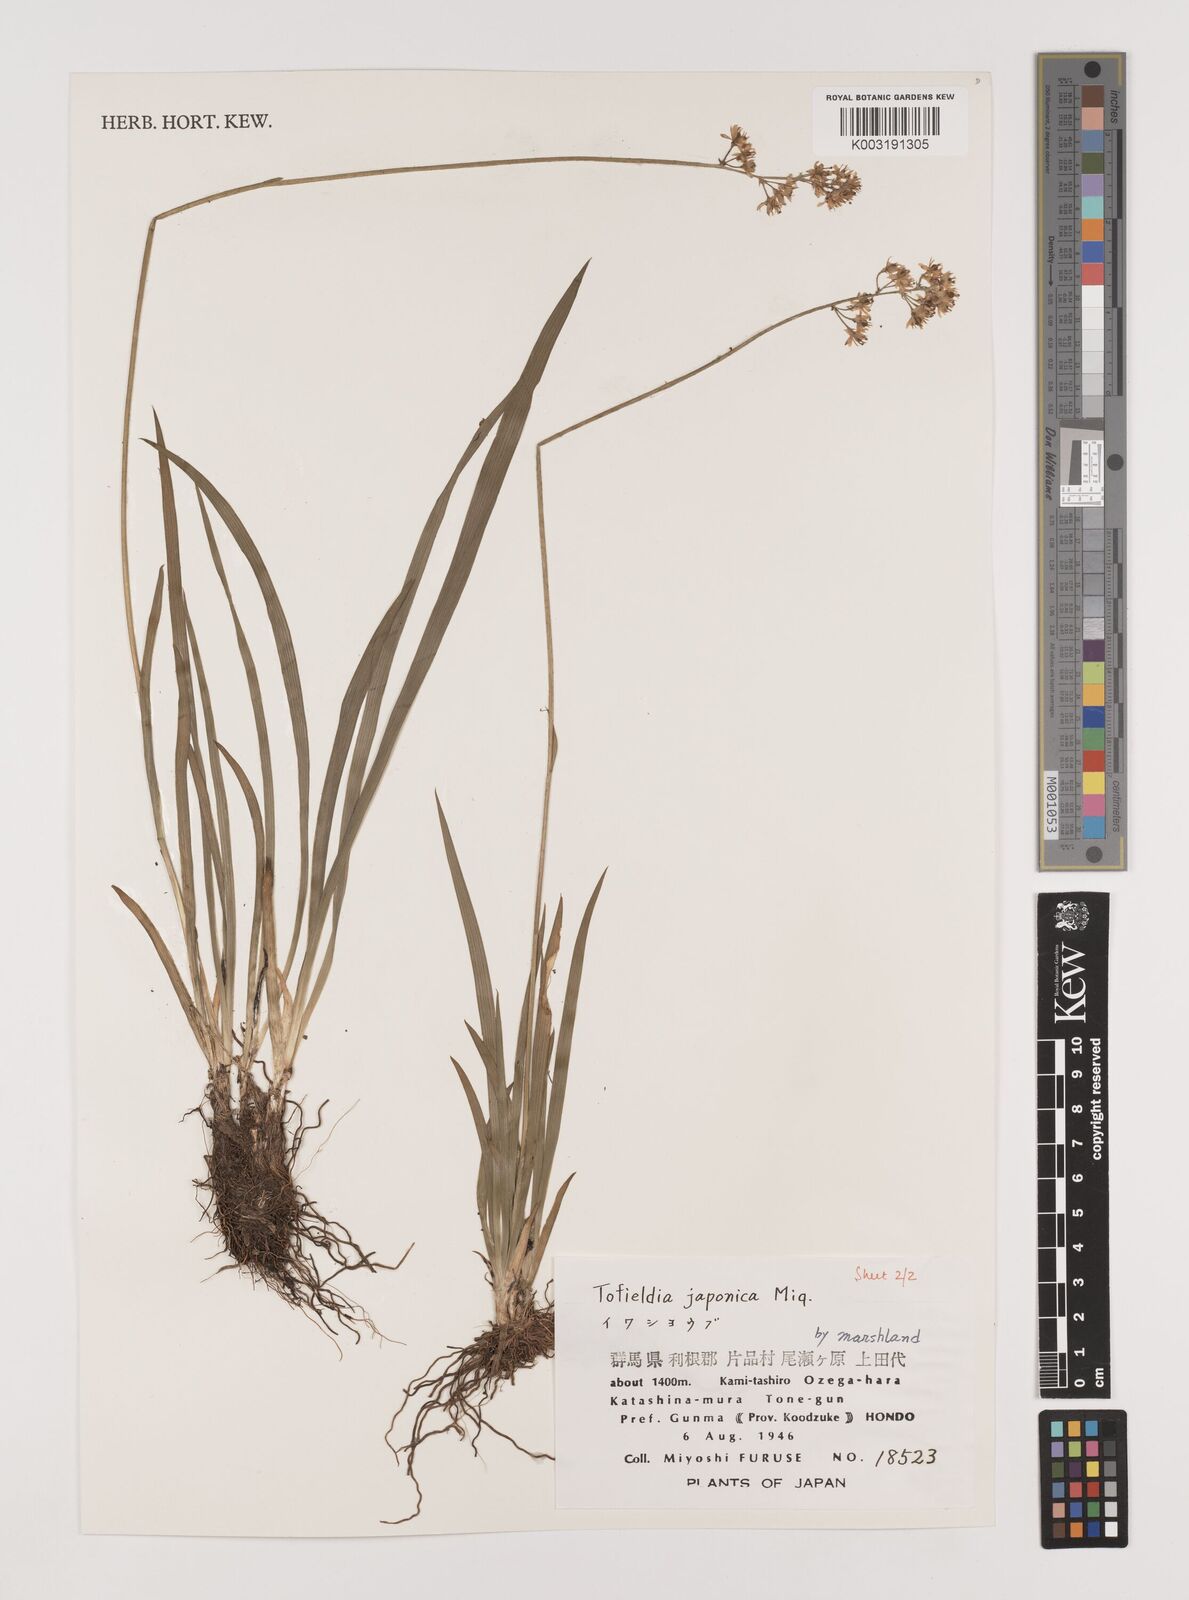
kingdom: Plantae
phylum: Tracheophyta
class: Liliopsida
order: Alismatales
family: Tofieldiaceae
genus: Triantha
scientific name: Triantha japonica
